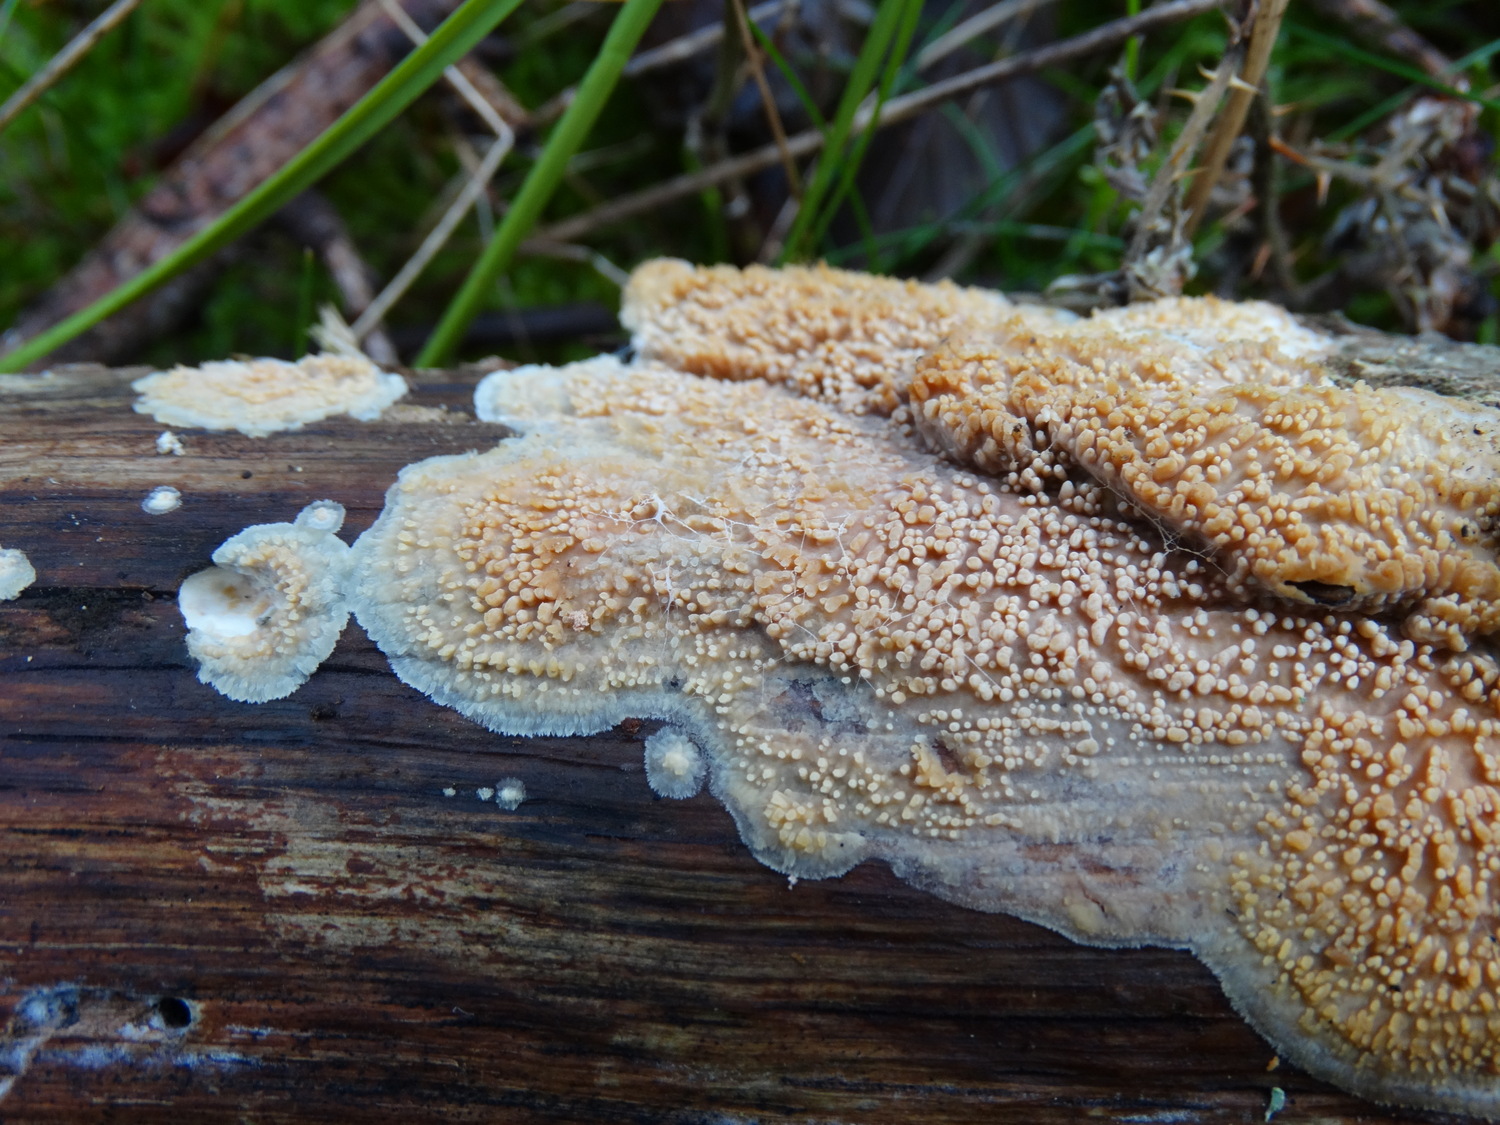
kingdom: Fungi
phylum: Basidiomycota
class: Agaricomycetes
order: Polyporales
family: Meruliaceae
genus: Phlebia
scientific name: Phlebia radiata
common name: stråle-åresvamp
